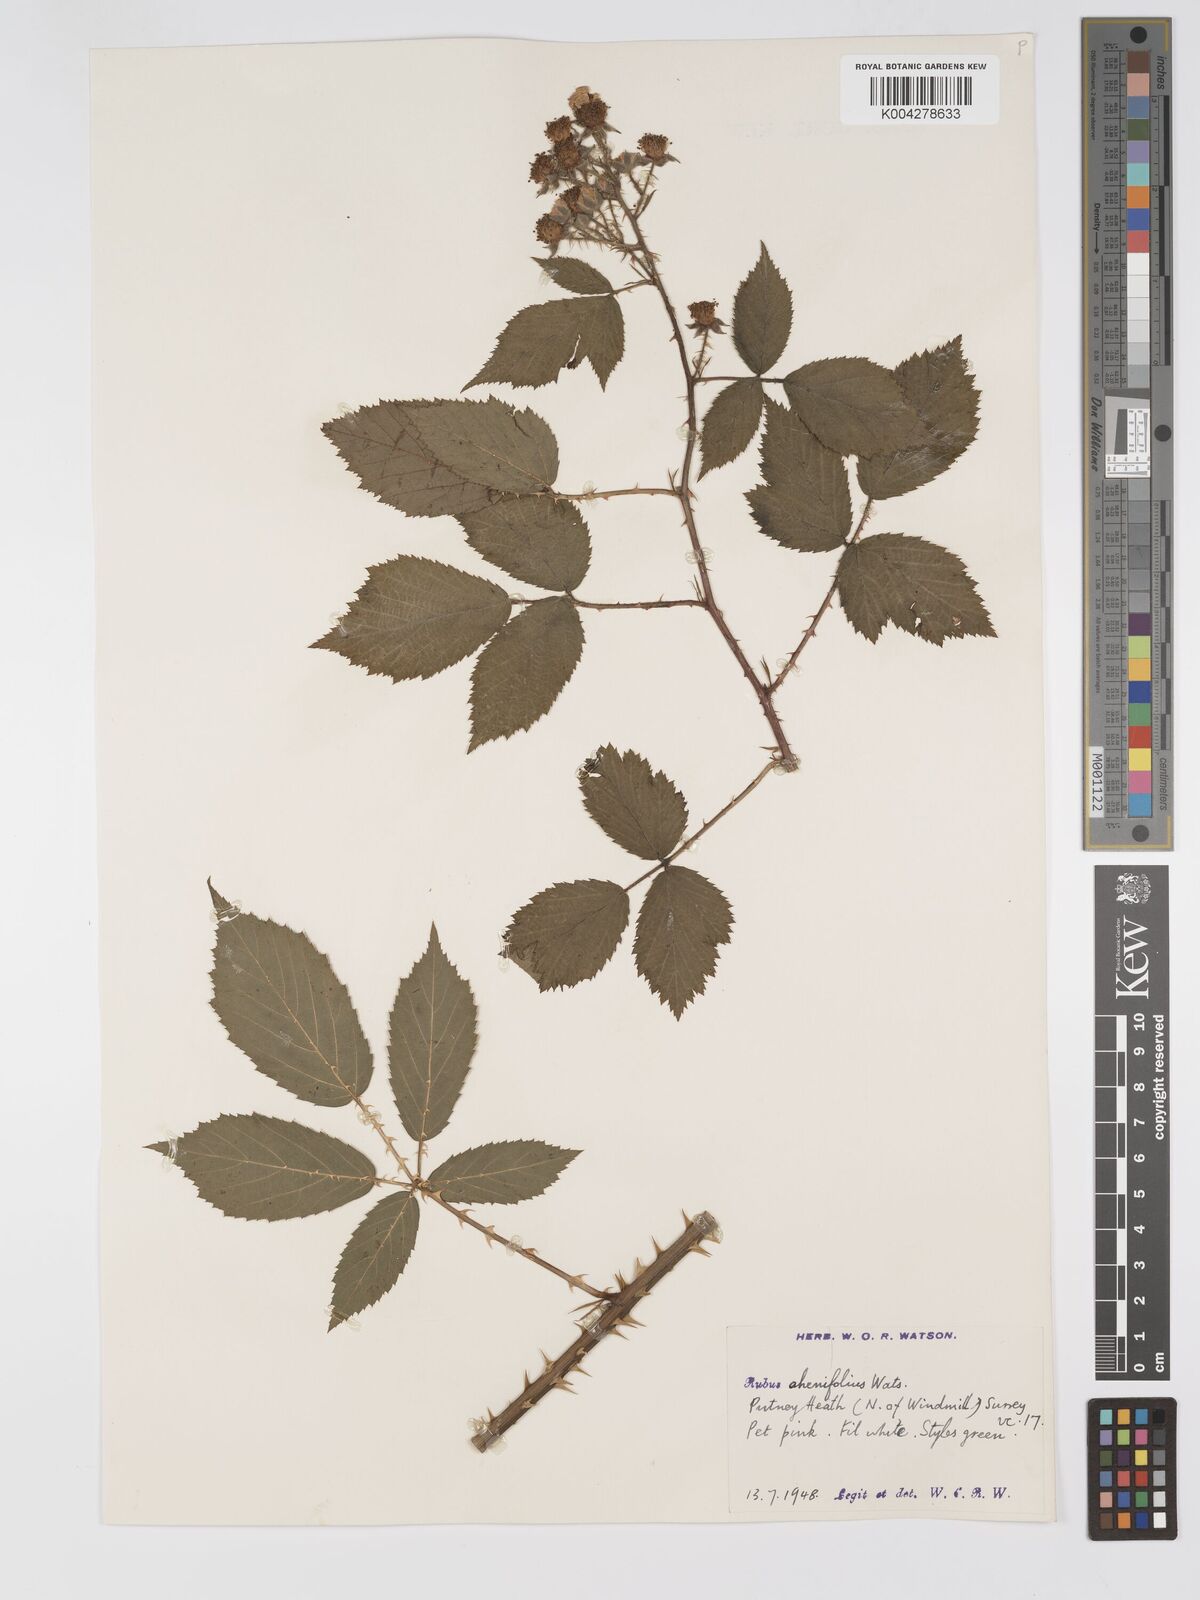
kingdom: Plantae
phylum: Tracheophyta
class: Magnoliopsida
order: Rosales
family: Rosaceae
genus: Rubus
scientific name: Rubus ahenifolius
